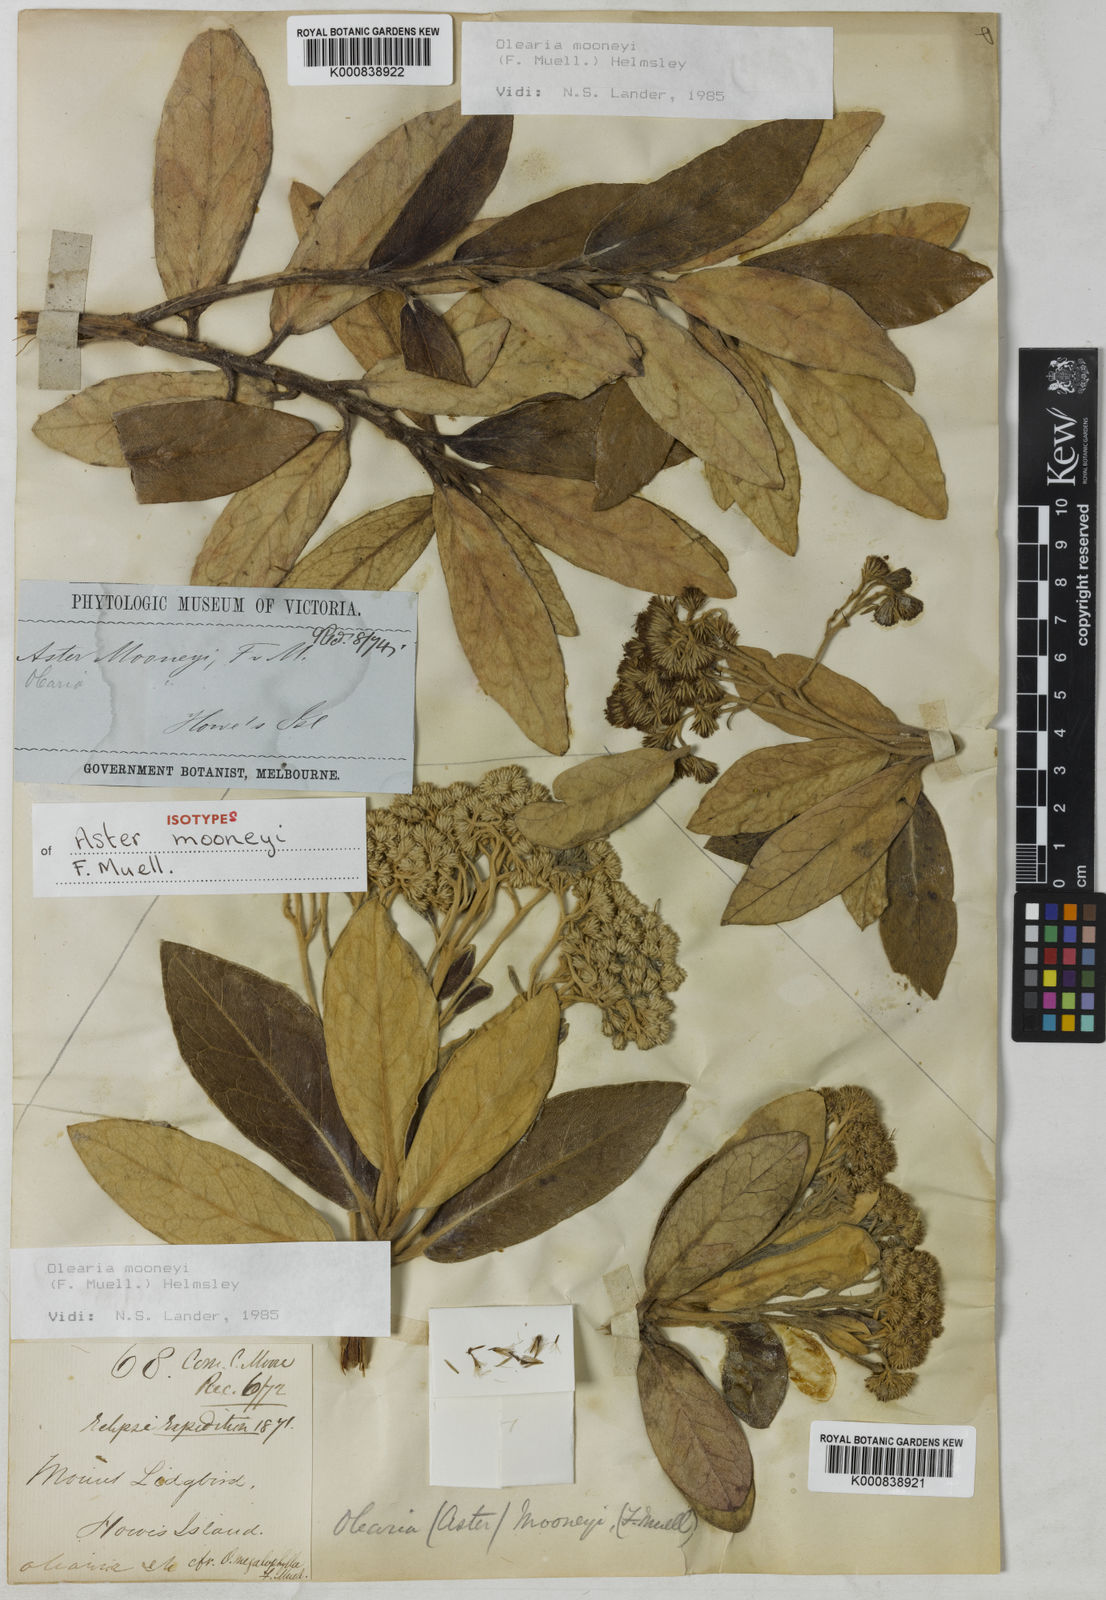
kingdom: Plantae
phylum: Tracheophyta
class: Magnoliopsida
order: Asterales
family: Asteraceae
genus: Olearia
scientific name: Olearia mooneyi
